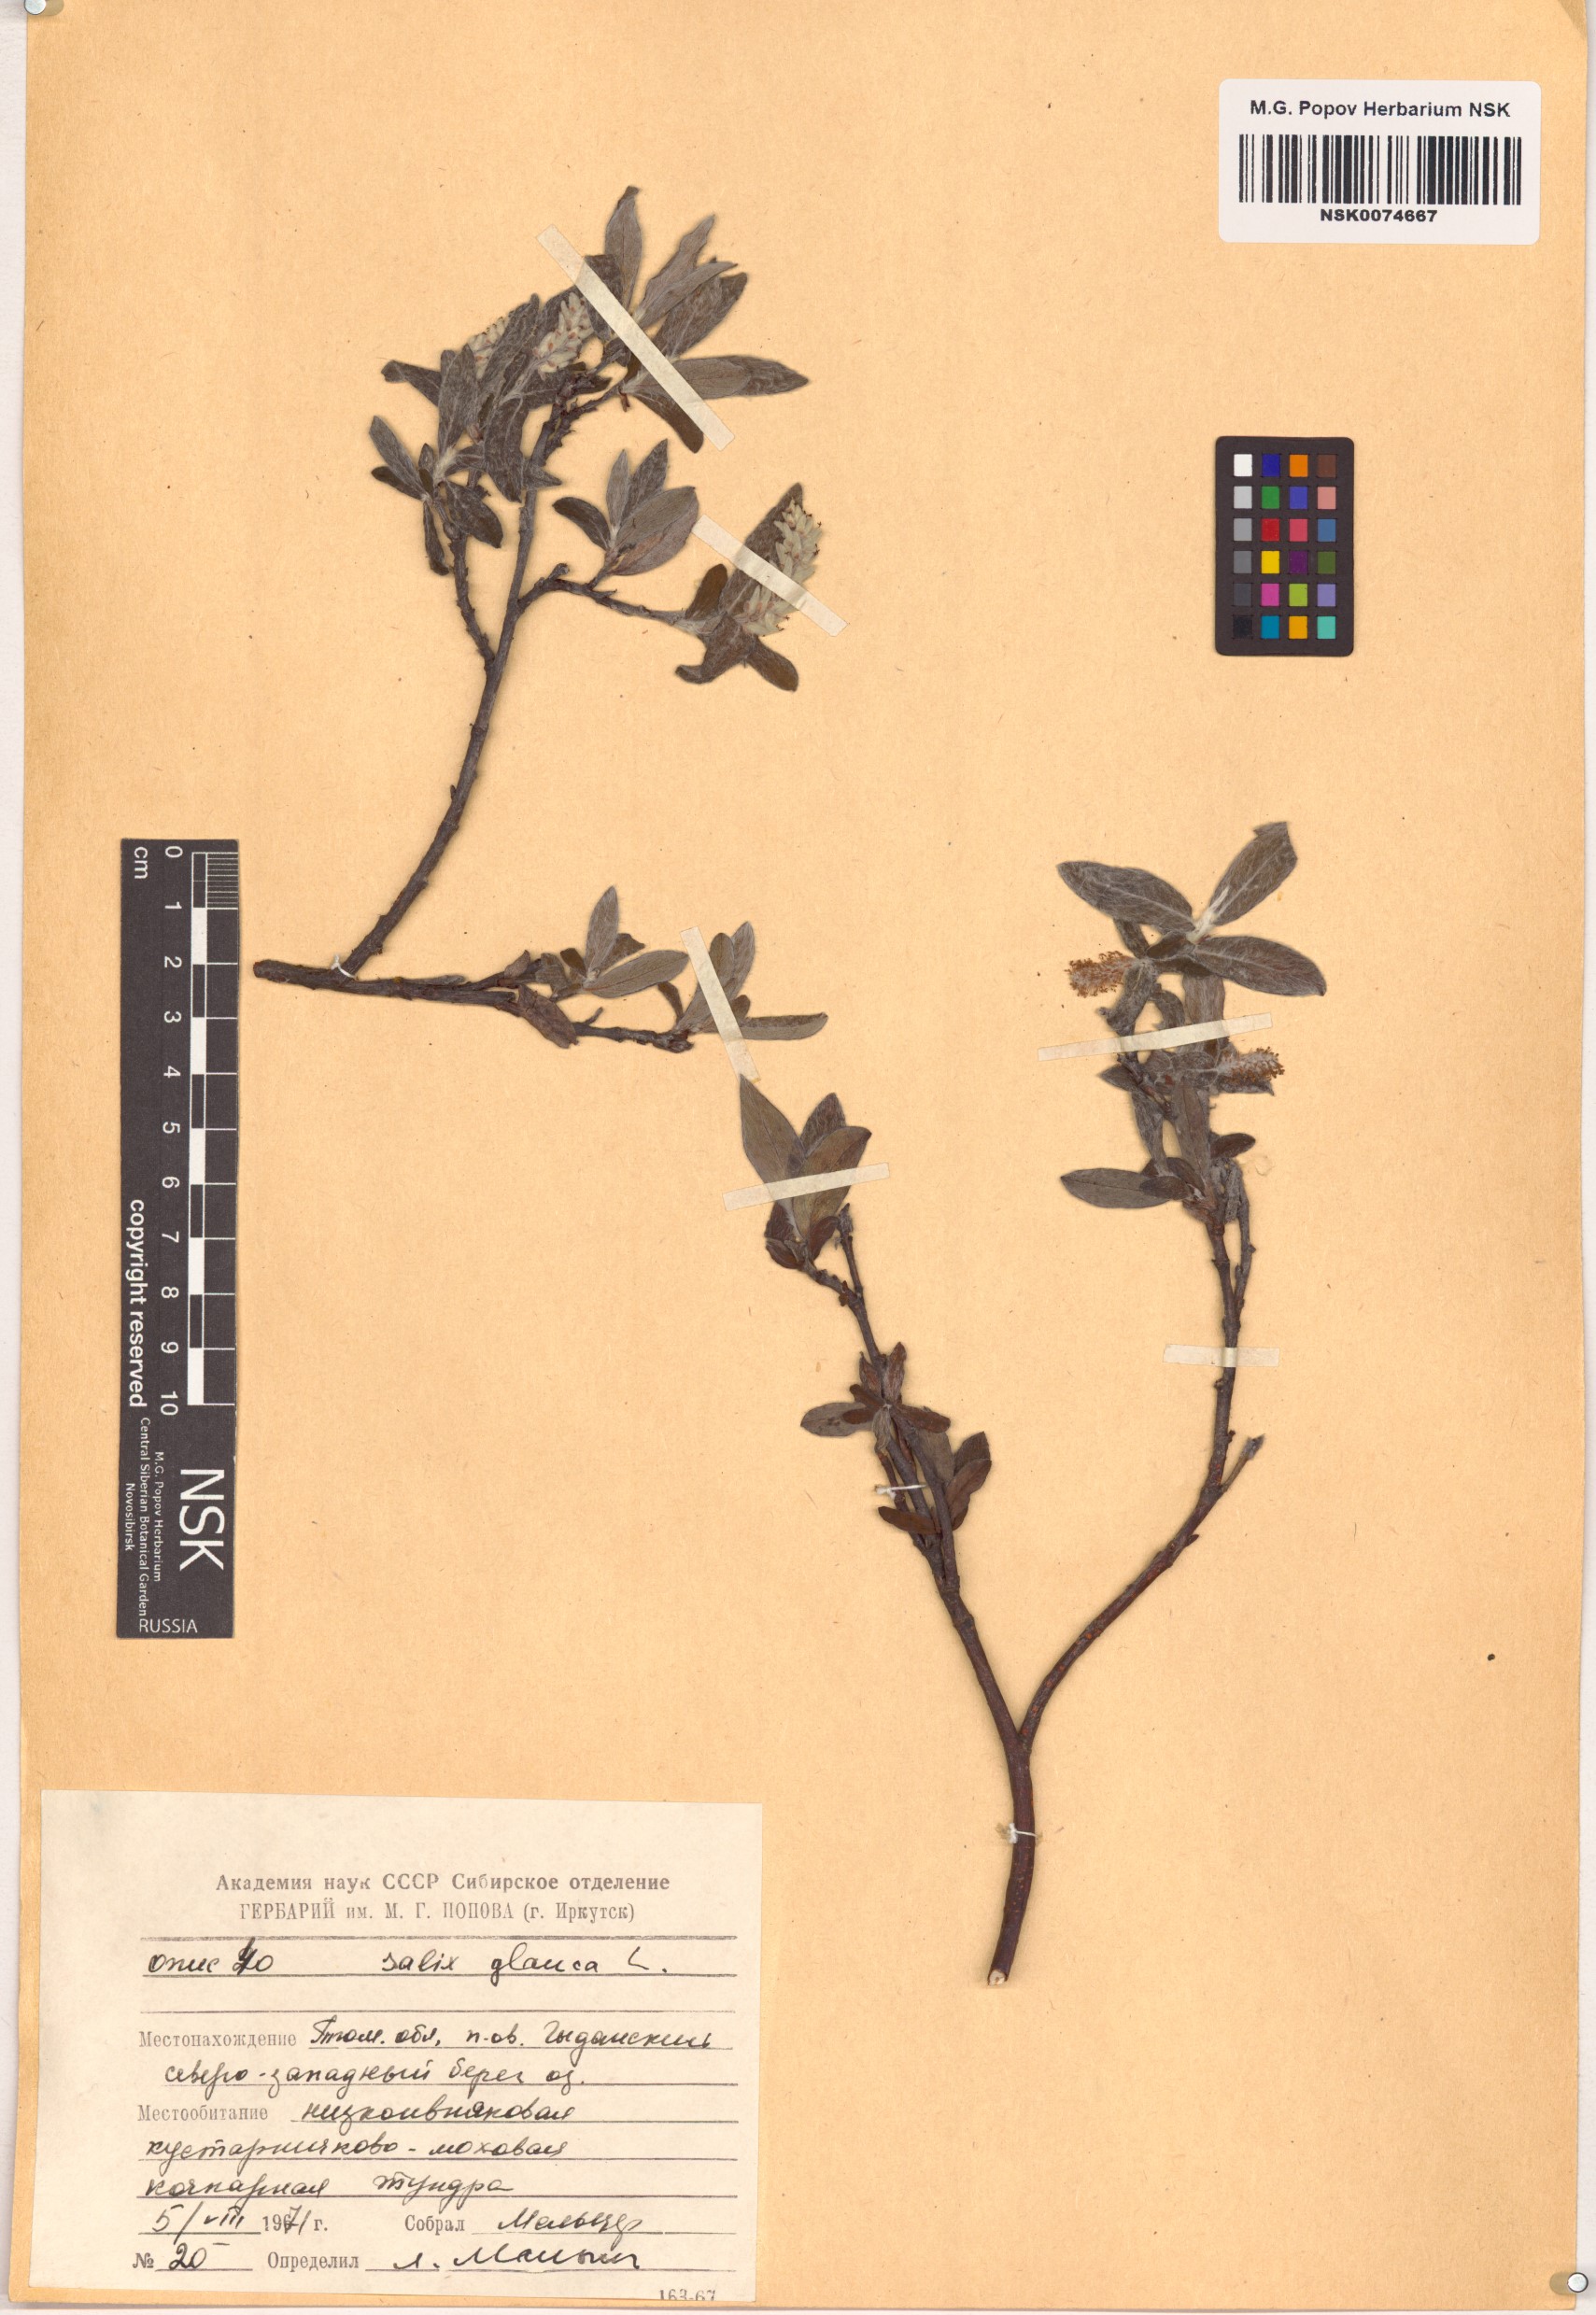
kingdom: Plantae
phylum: Tracheophyta
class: Magnoliopsida
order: Malpighiales
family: Salicaceae
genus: Salix
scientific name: Salix glauca
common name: Glaucous willow
